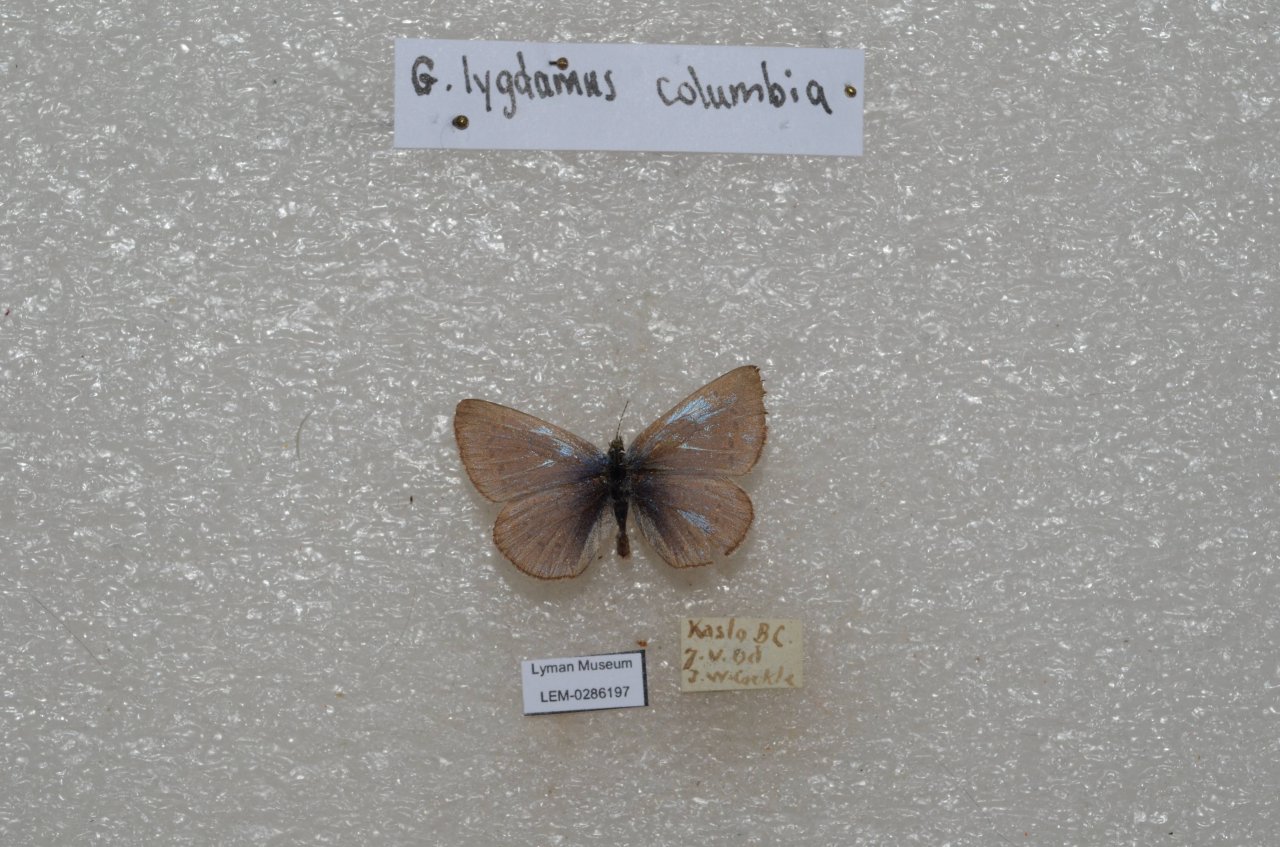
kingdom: Animalia
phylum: Arthropoda
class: Insecta
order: Lepidoptera
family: Lycaenidae
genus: Glaucopsyche
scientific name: Glaucopsyche lygdamus
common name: Silvery Blue
